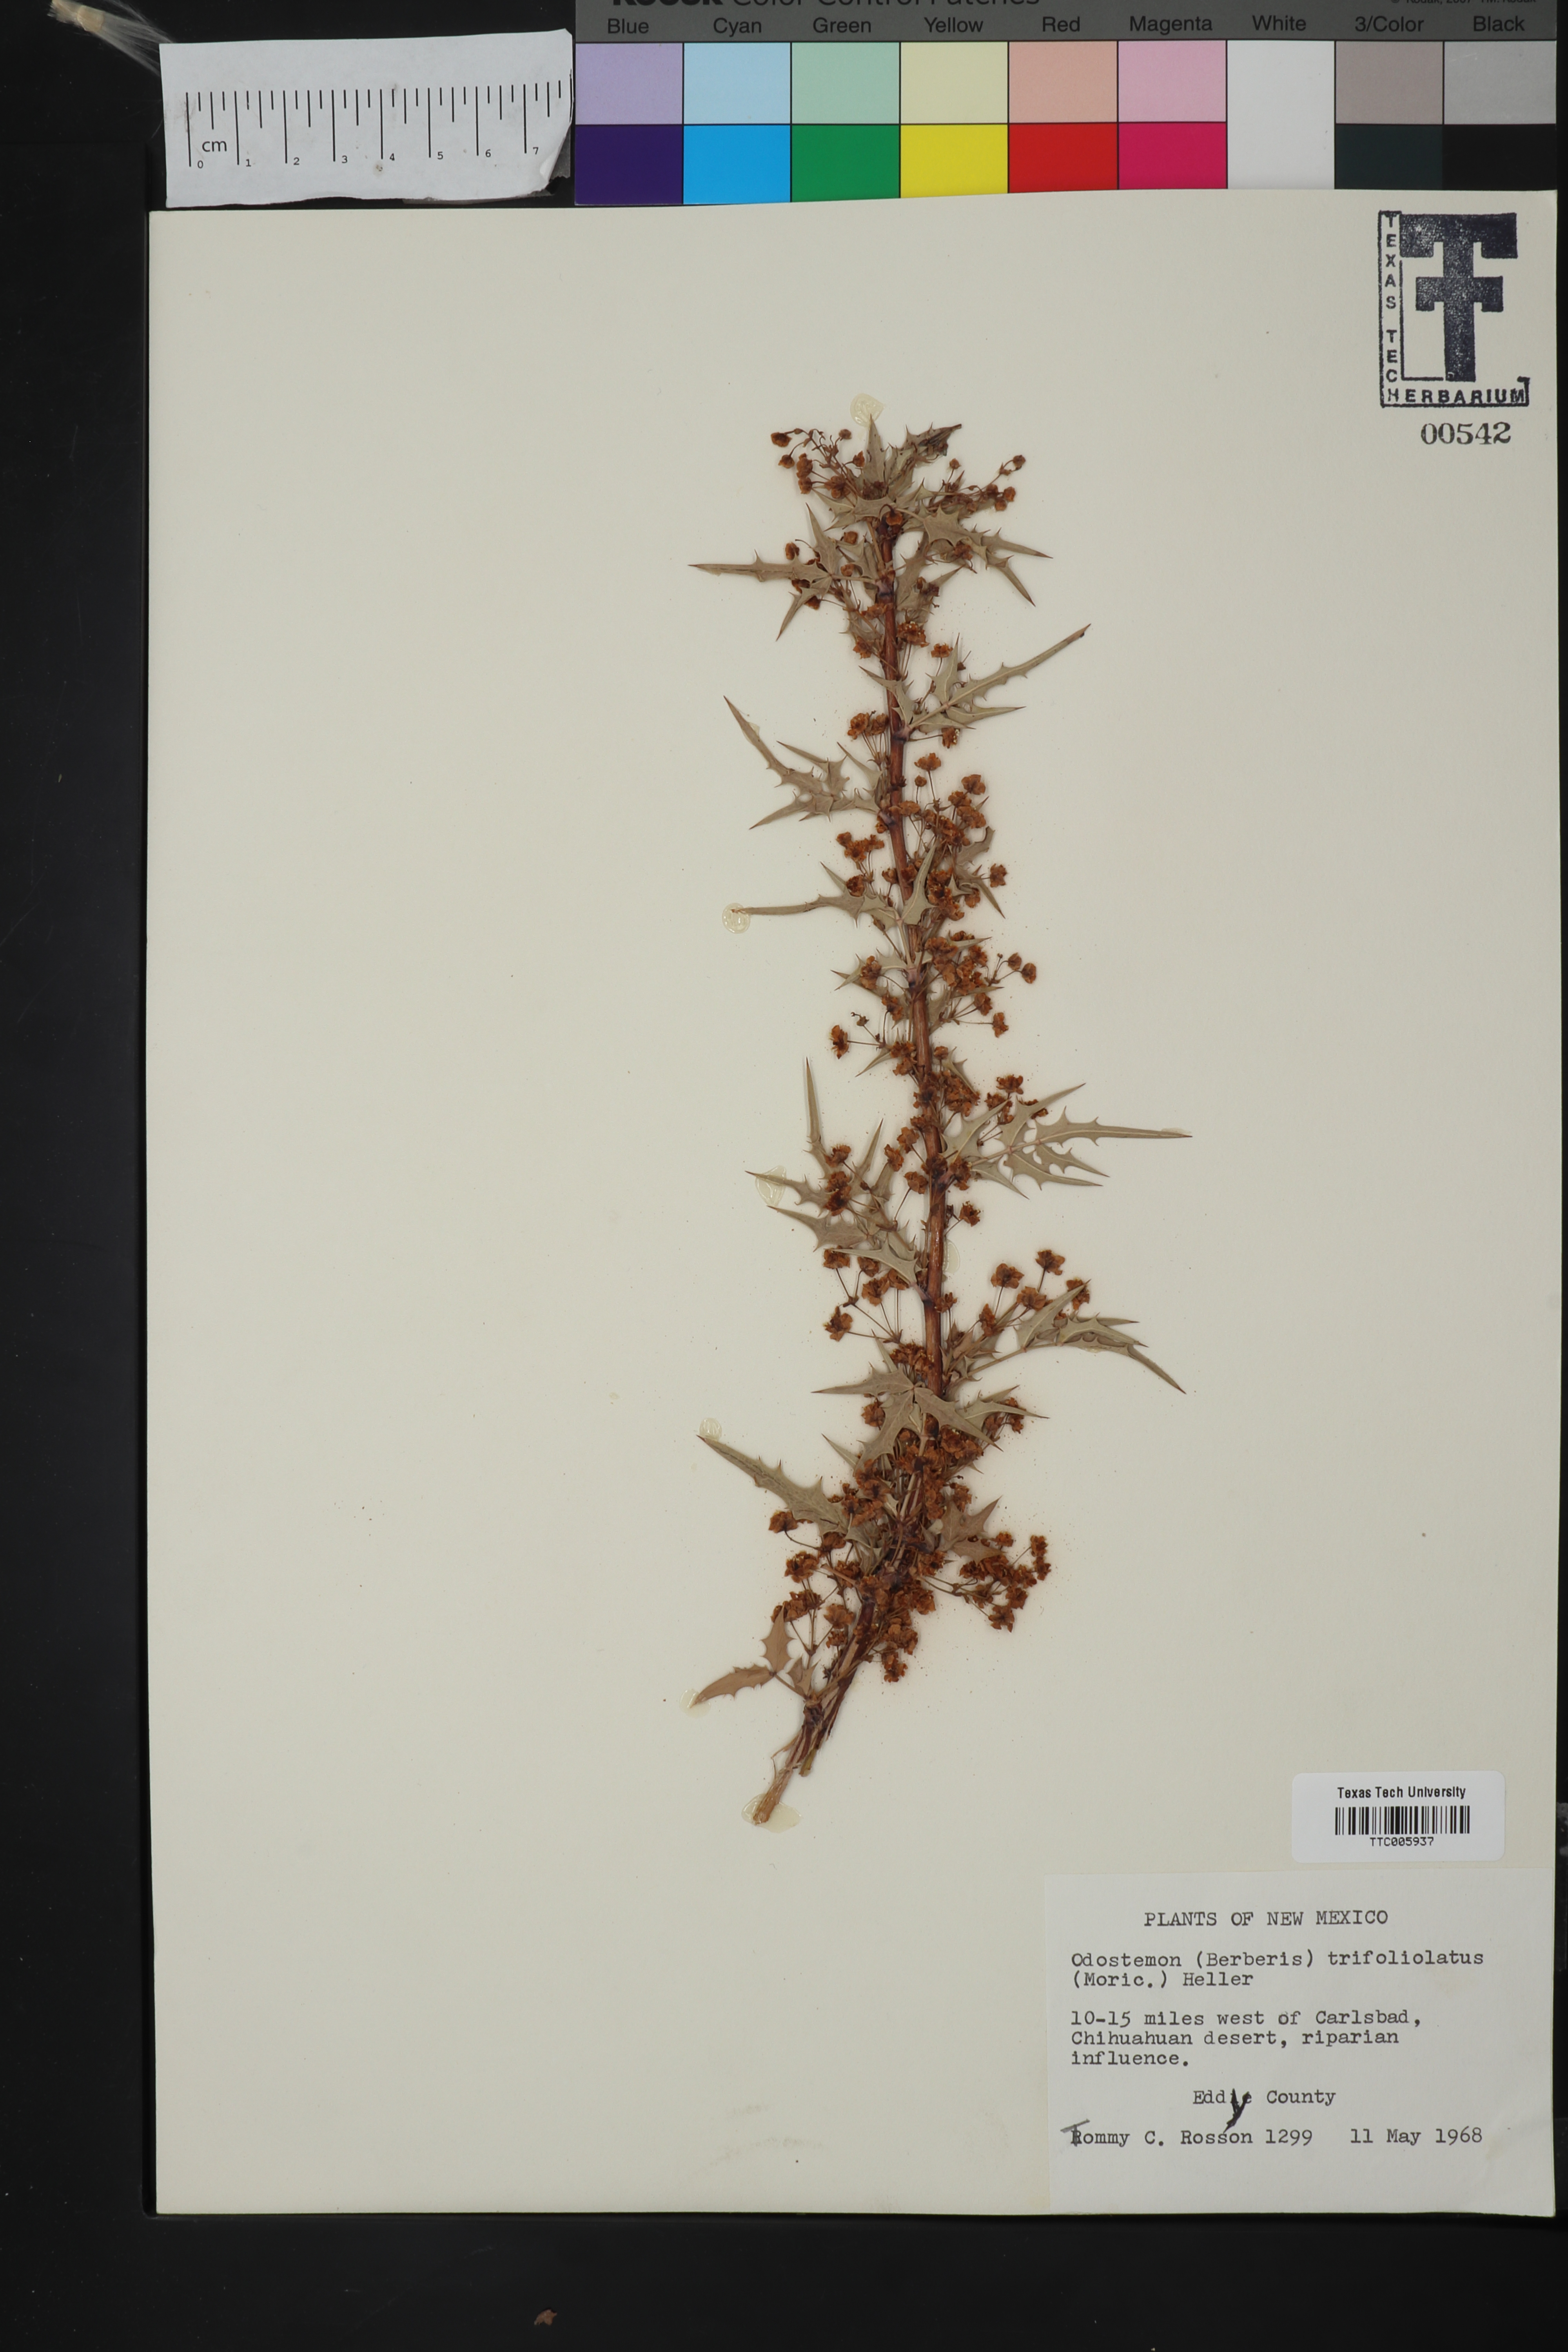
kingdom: Plantae
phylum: Tracheophyta
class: Magnoliopsida
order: Ranunculales
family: Berberidaceae
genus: Alloberberis
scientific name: Alloberberis trifoliolata
